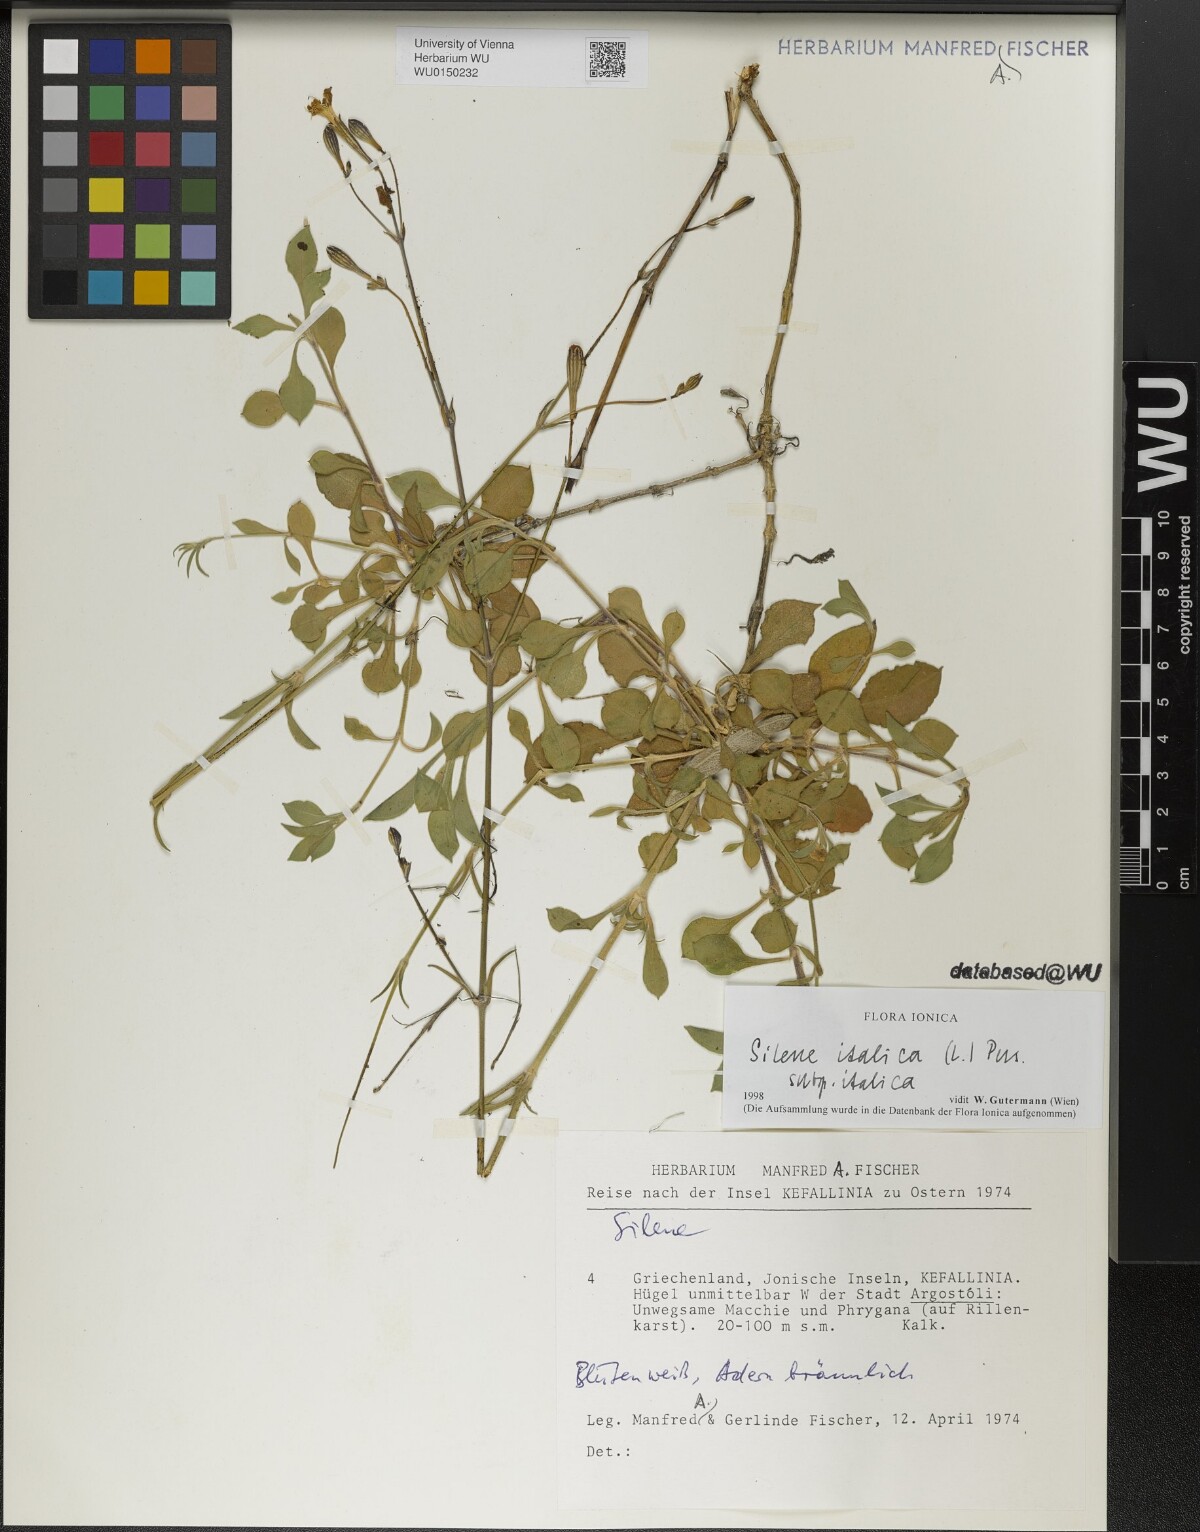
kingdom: Plantae
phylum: Tracheophyta
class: Magnoliopsida
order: Caryophyllales
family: Caryophyllaceae
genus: Silene
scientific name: Silene italica
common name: Italian catchfly
